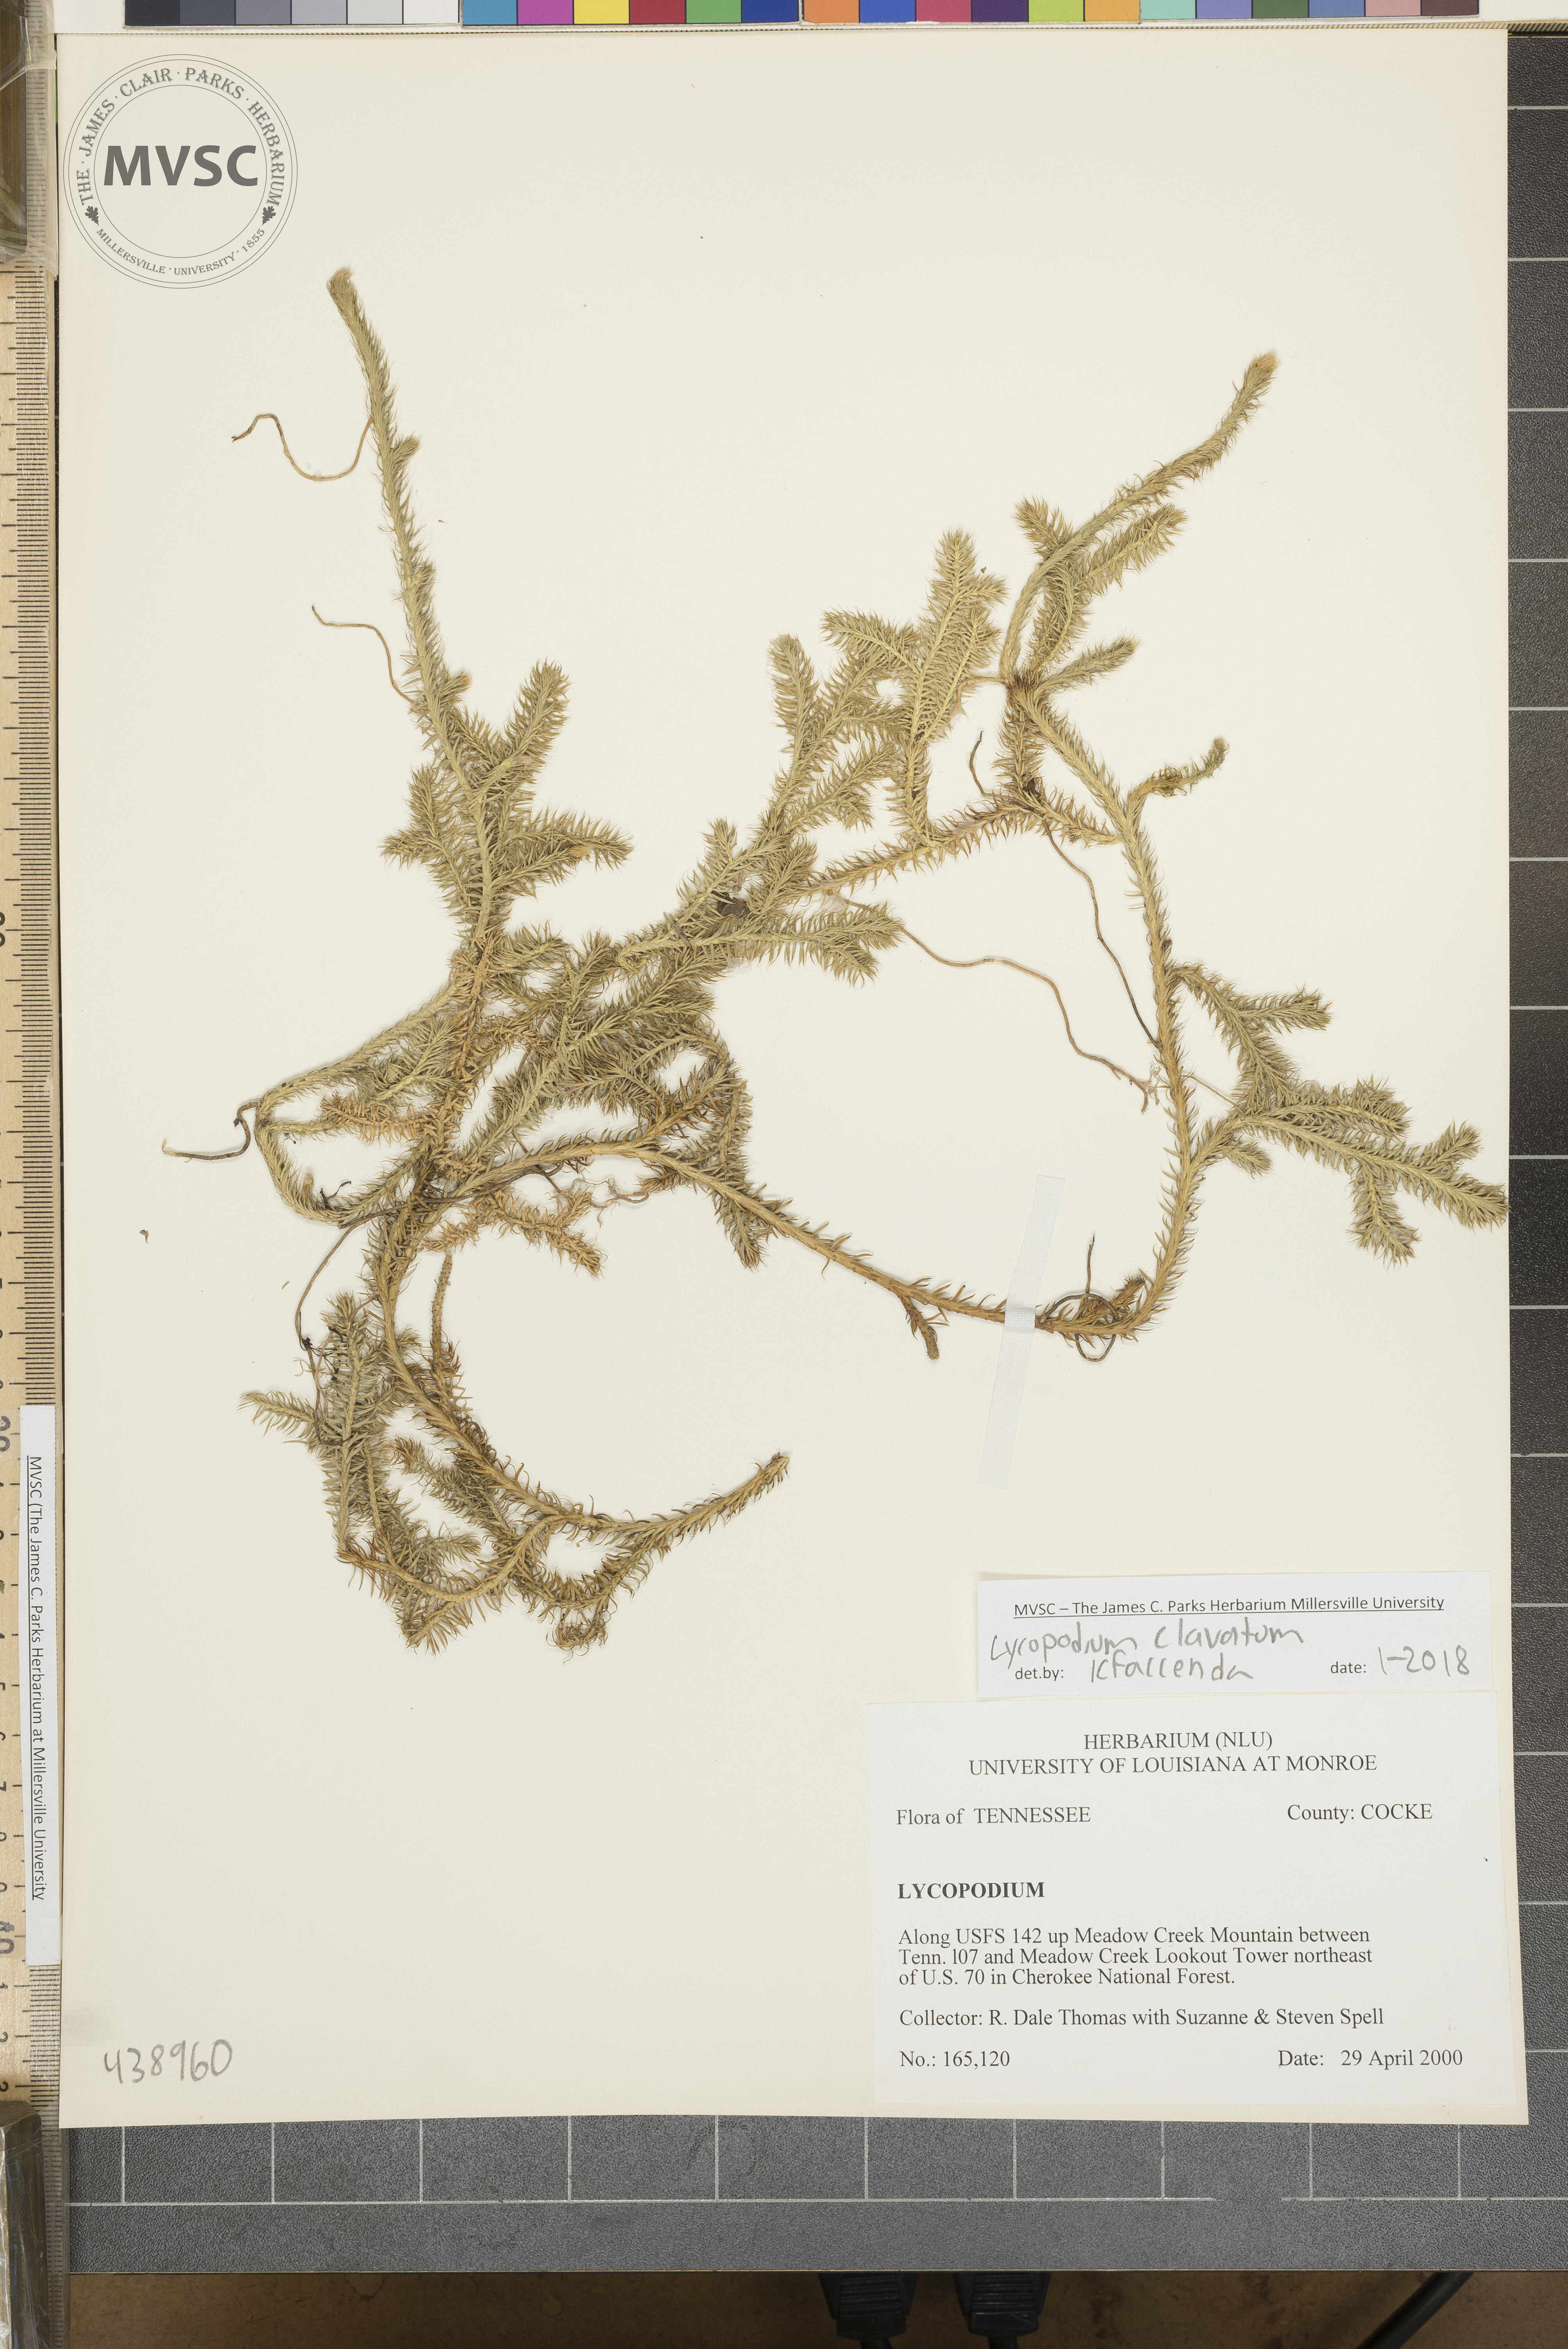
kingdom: Plantae
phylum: Tracheophyta
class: Lycopodiopsida
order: Lycopodiales
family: Lycopodiaceae
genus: Lycopodium
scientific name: Lycopodium clavatum
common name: Stag's-horn clubmoss
